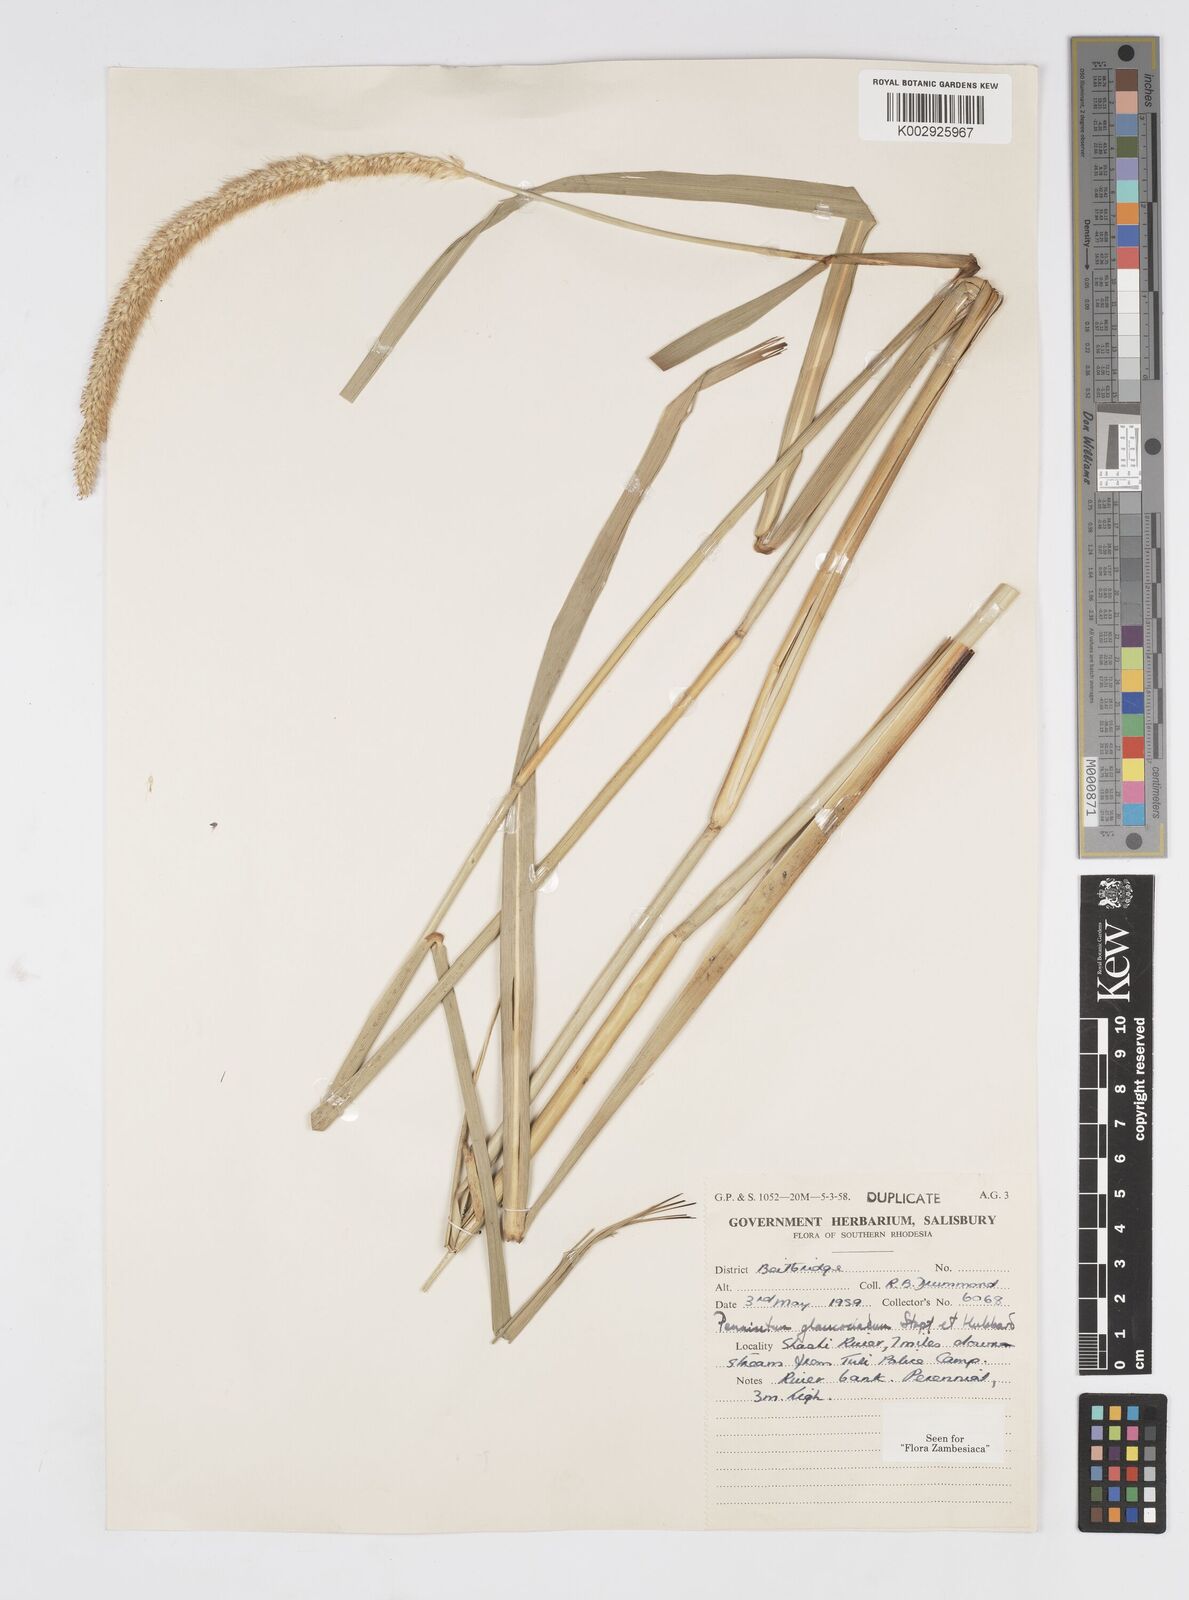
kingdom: Plantae
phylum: Tracheophyta
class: Liliopsida
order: Poales
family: Poaceae
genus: Cenchrus
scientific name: Cenchrus caudatus
